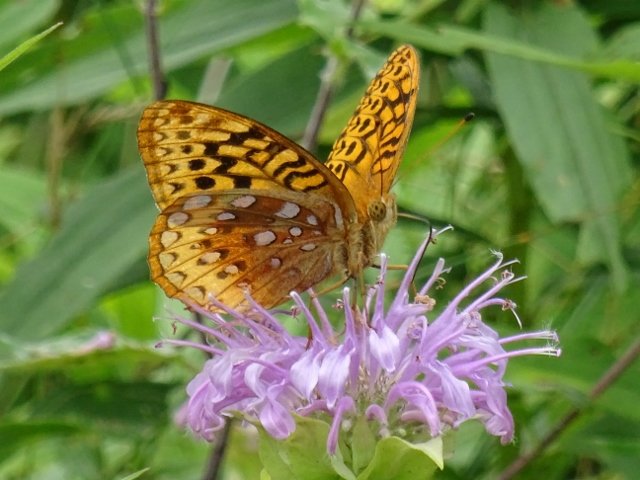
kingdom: Animalia
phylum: Arthropoda
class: Insecta
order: Lepidoptera
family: Nymphalidae
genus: Speyeria
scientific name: Speyeria cybele
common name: Great Spangled Fritillary
